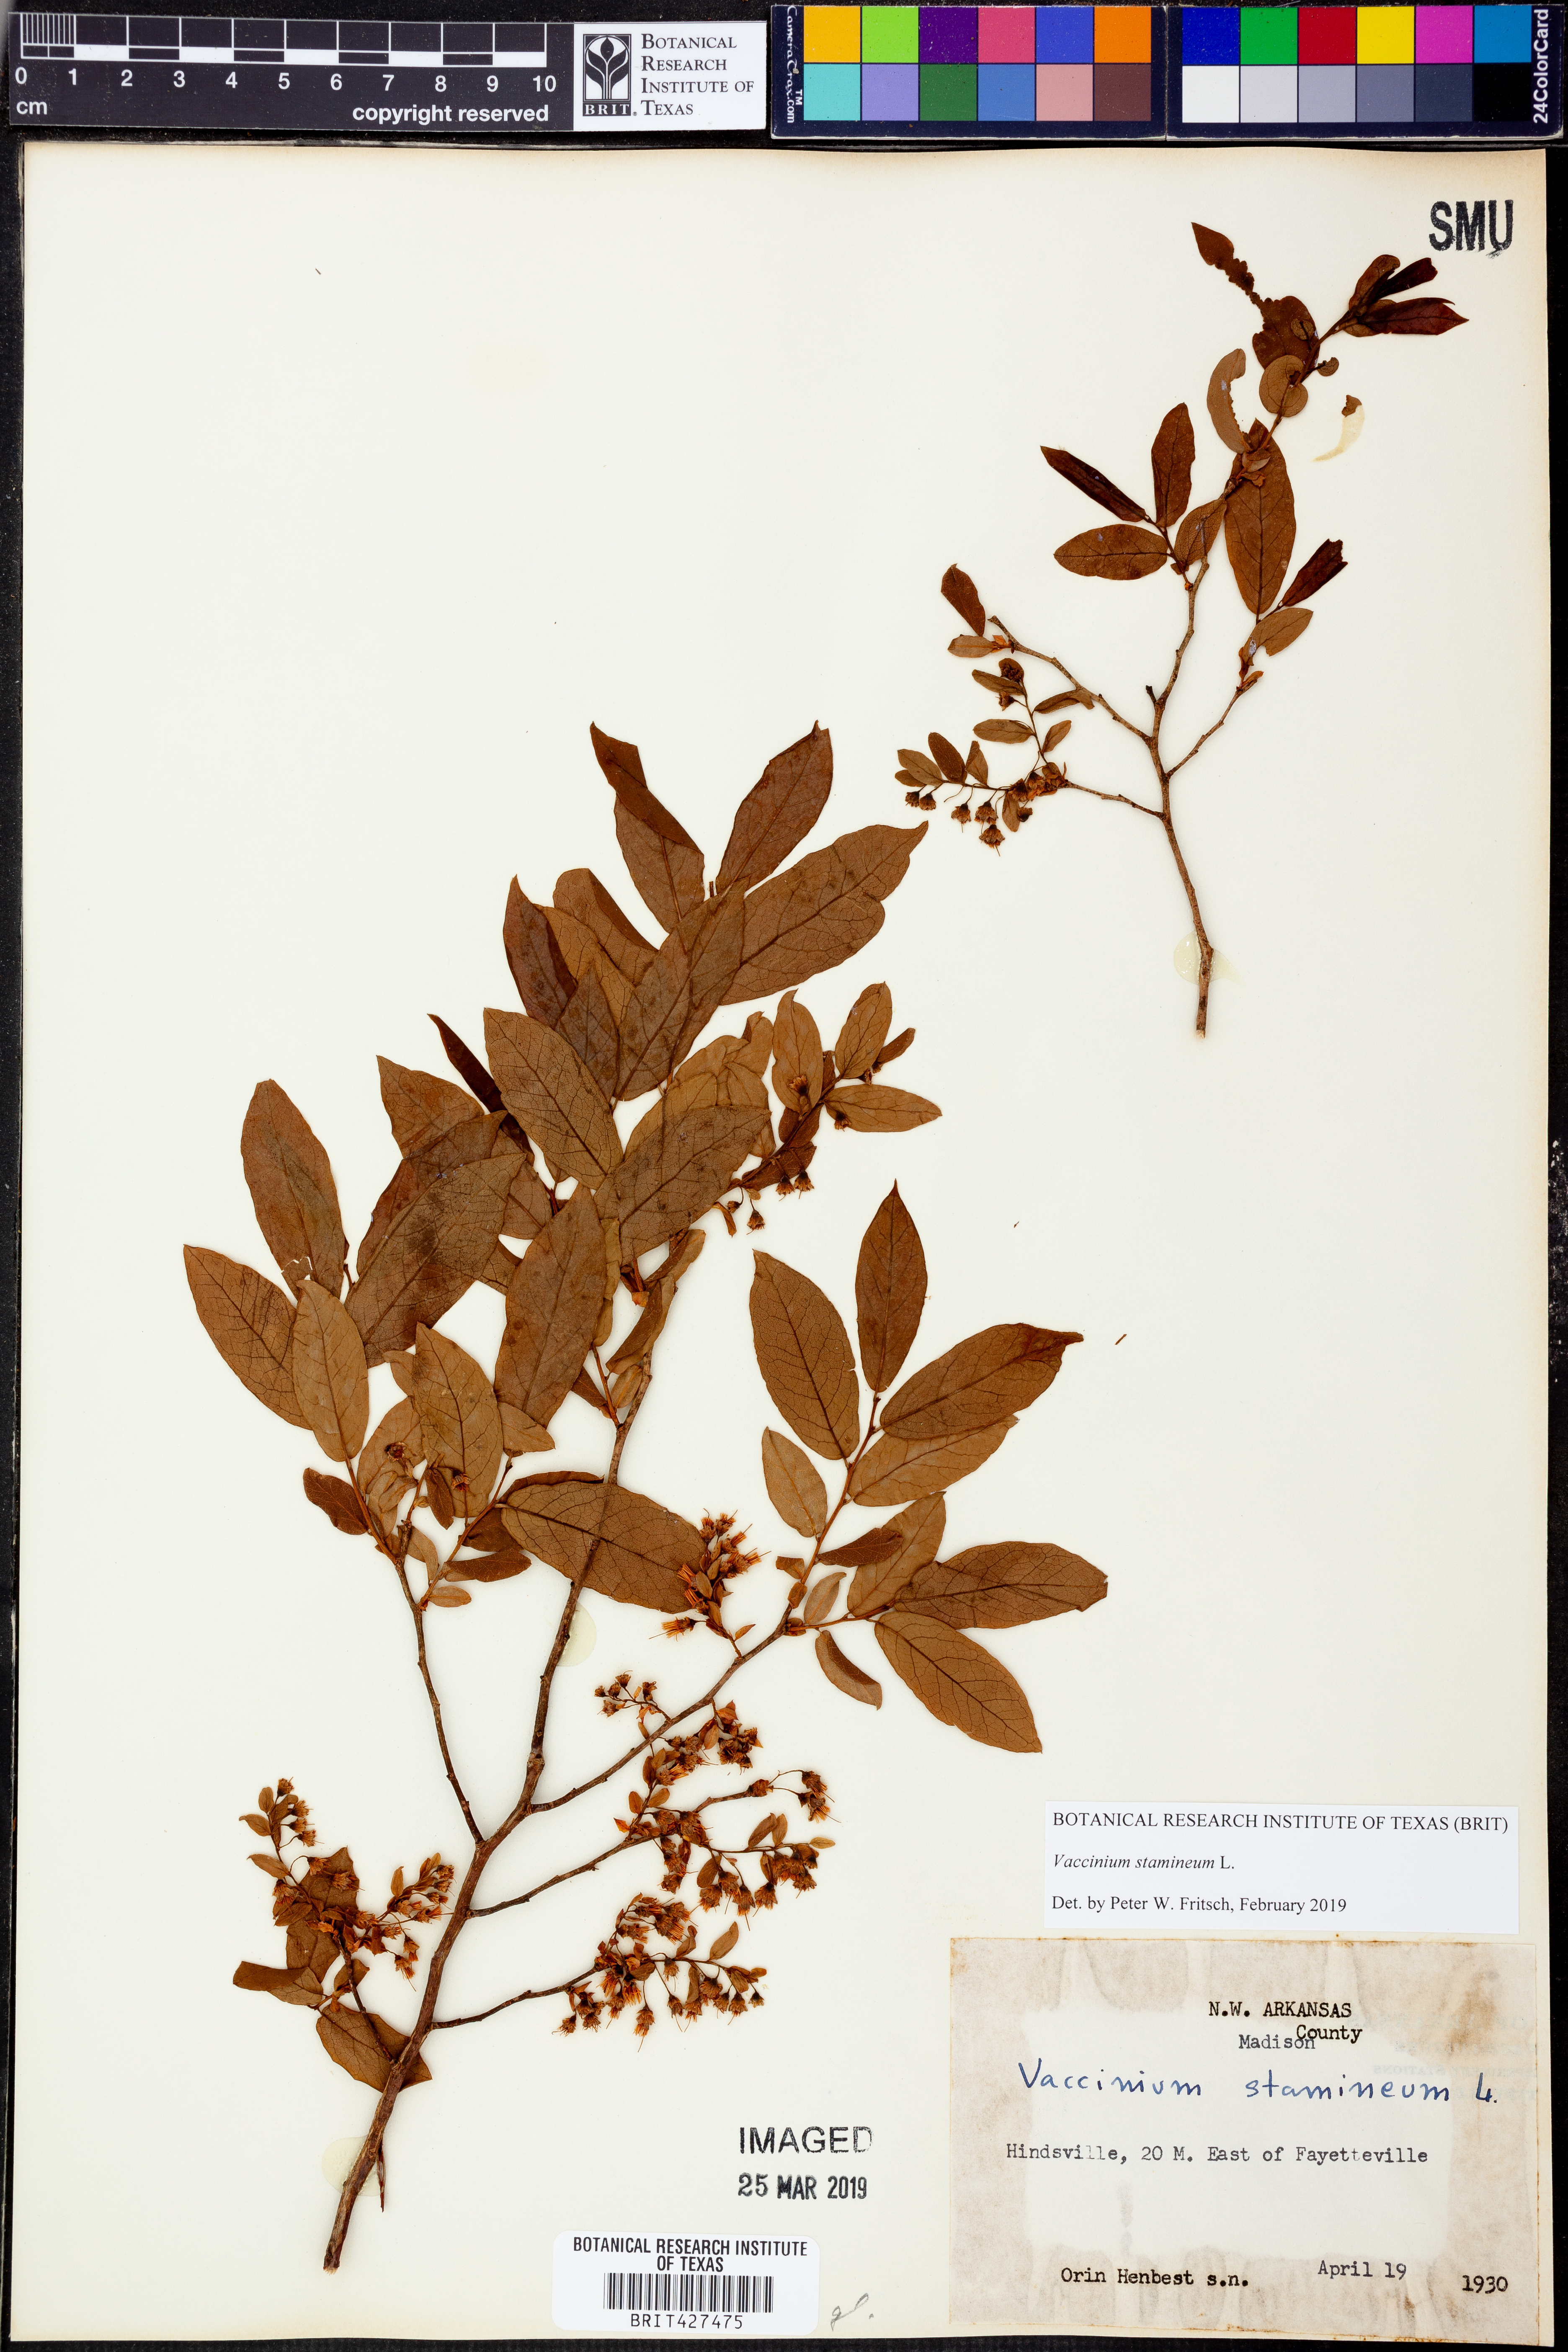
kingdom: Plantae
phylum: Tracheophyta
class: Magnoliopsida
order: Ericales
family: Ericaceae
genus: Vaccinium
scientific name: Vaccinium stamineum
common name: Deerberry
